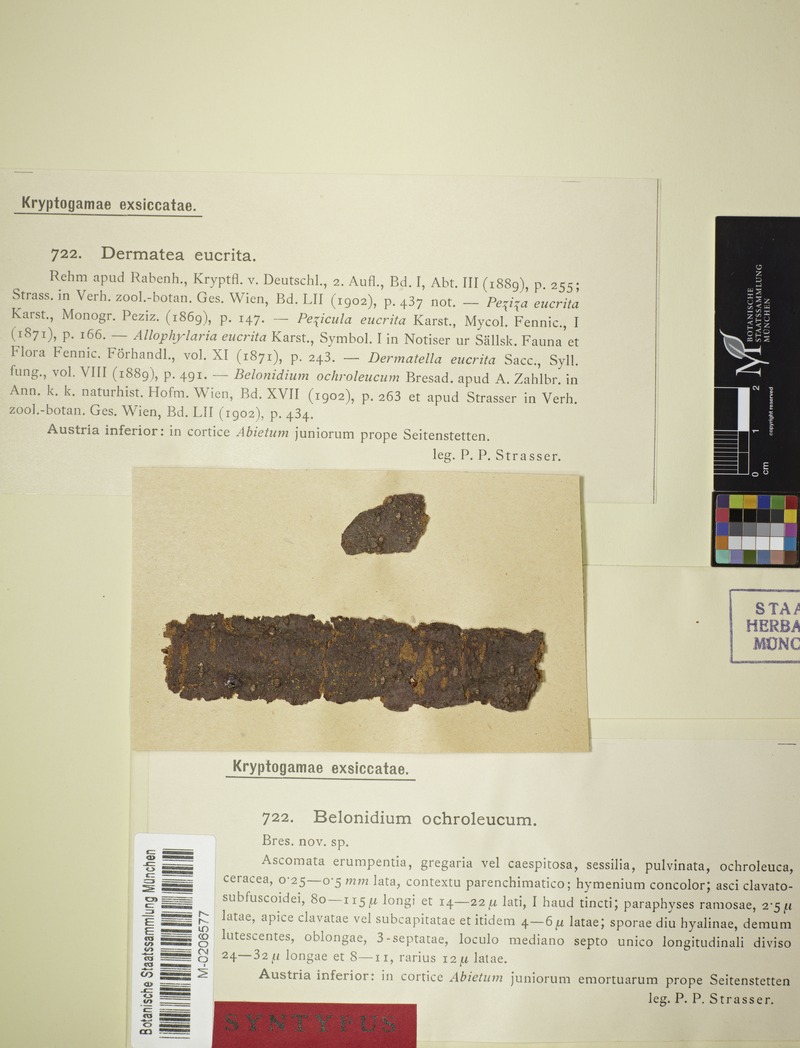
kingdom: Fungi
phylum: Ascomycota
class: Leotiomycetes
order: Helotiales
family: Dermateaceae
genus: Pezicula
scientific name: Pezicula eucrita
